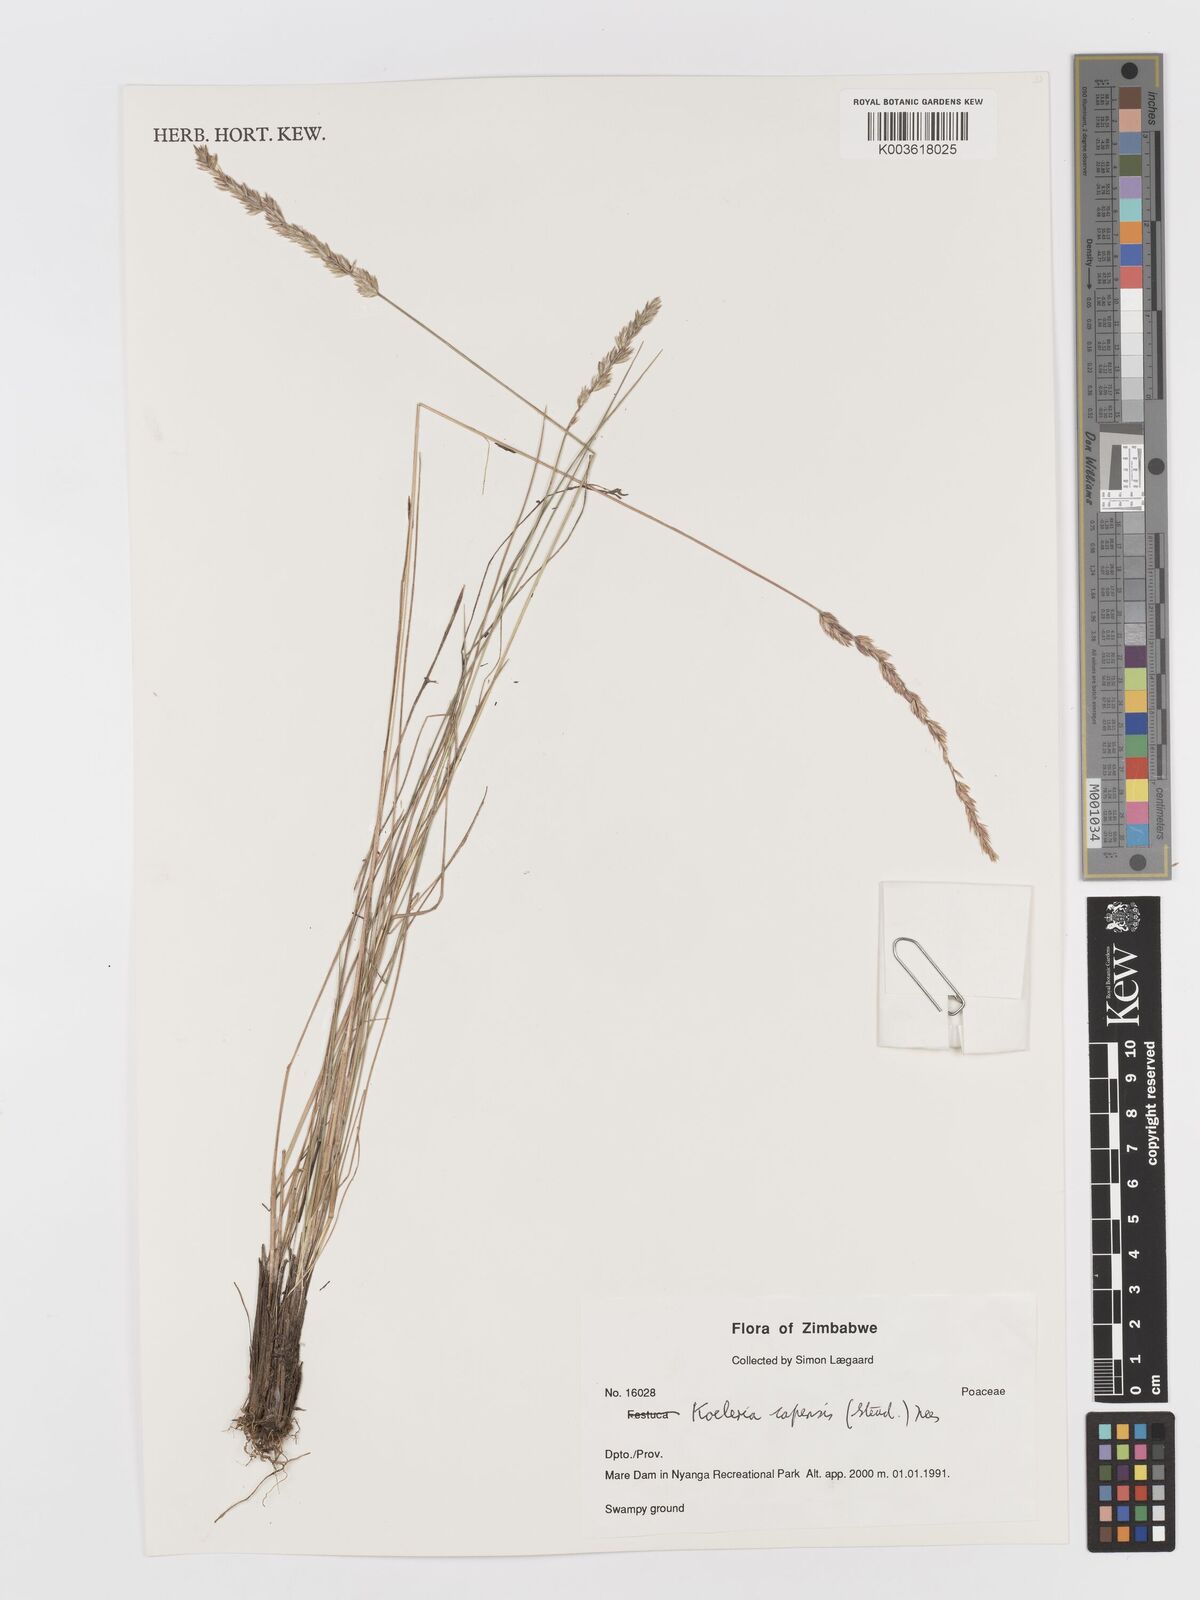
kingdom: Plantae
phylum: Tracheophyta
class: Liliopsida
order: Poales
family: Poaceae
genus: Koeleria
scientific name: Koeleria capensis
